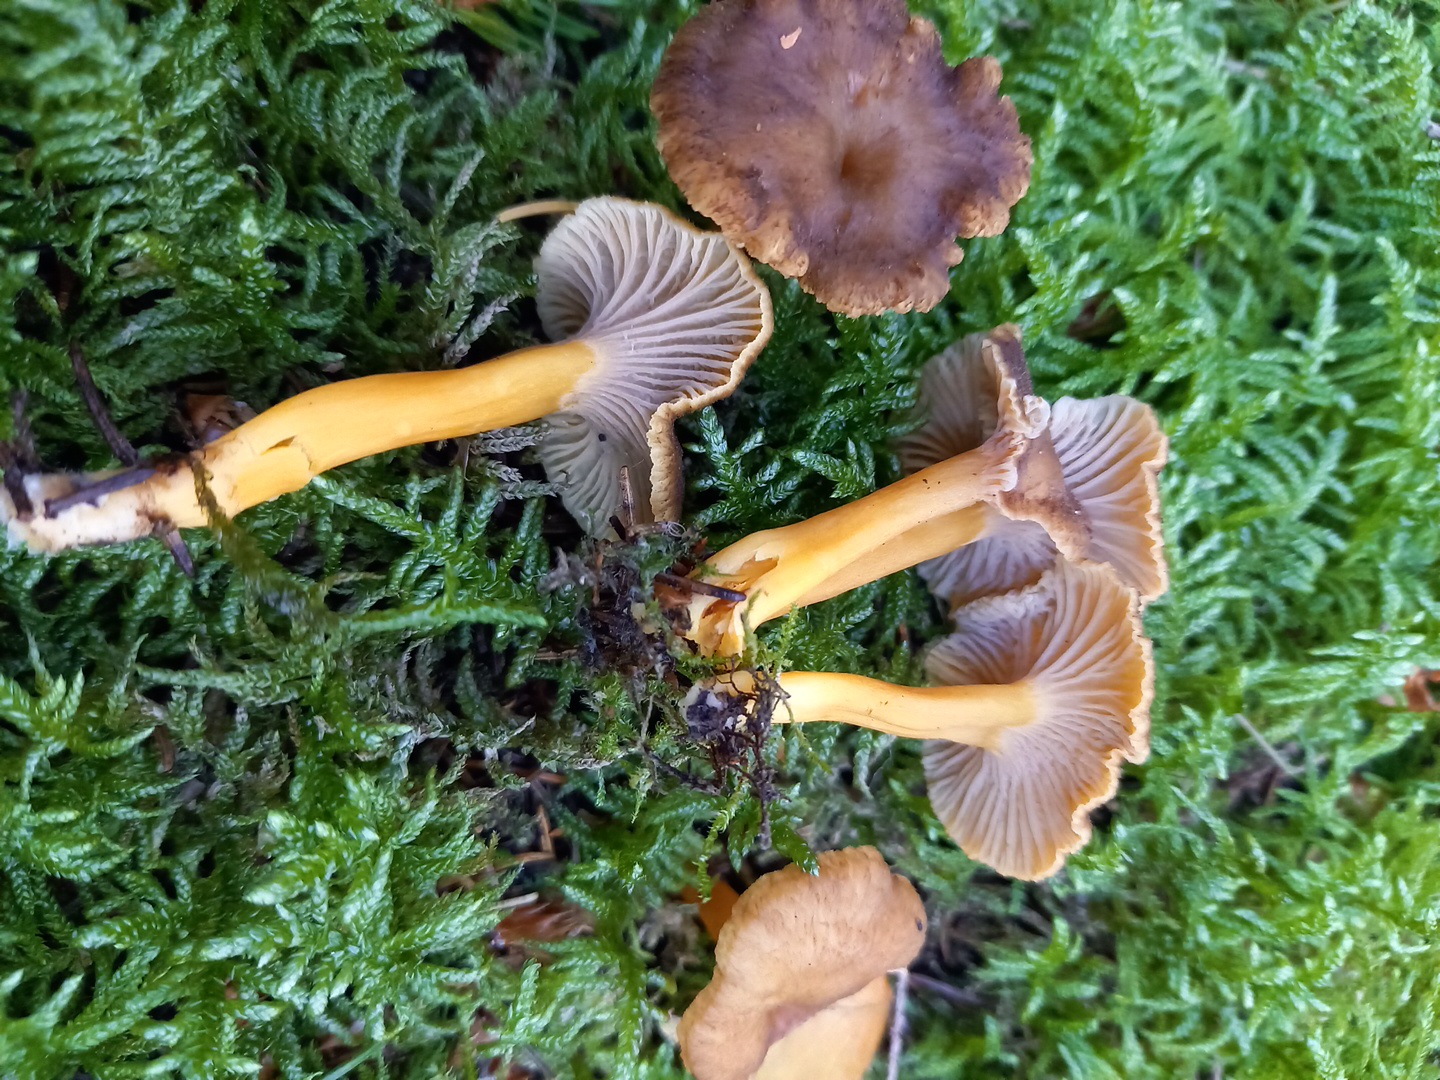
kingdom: Fungi
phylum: Basidiomycota
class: Agaricomycetes
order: Cantharellales
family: Hydnaceae
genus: Craterellus
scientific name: Craterellus tubaeformis
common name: tragt-kantarel
